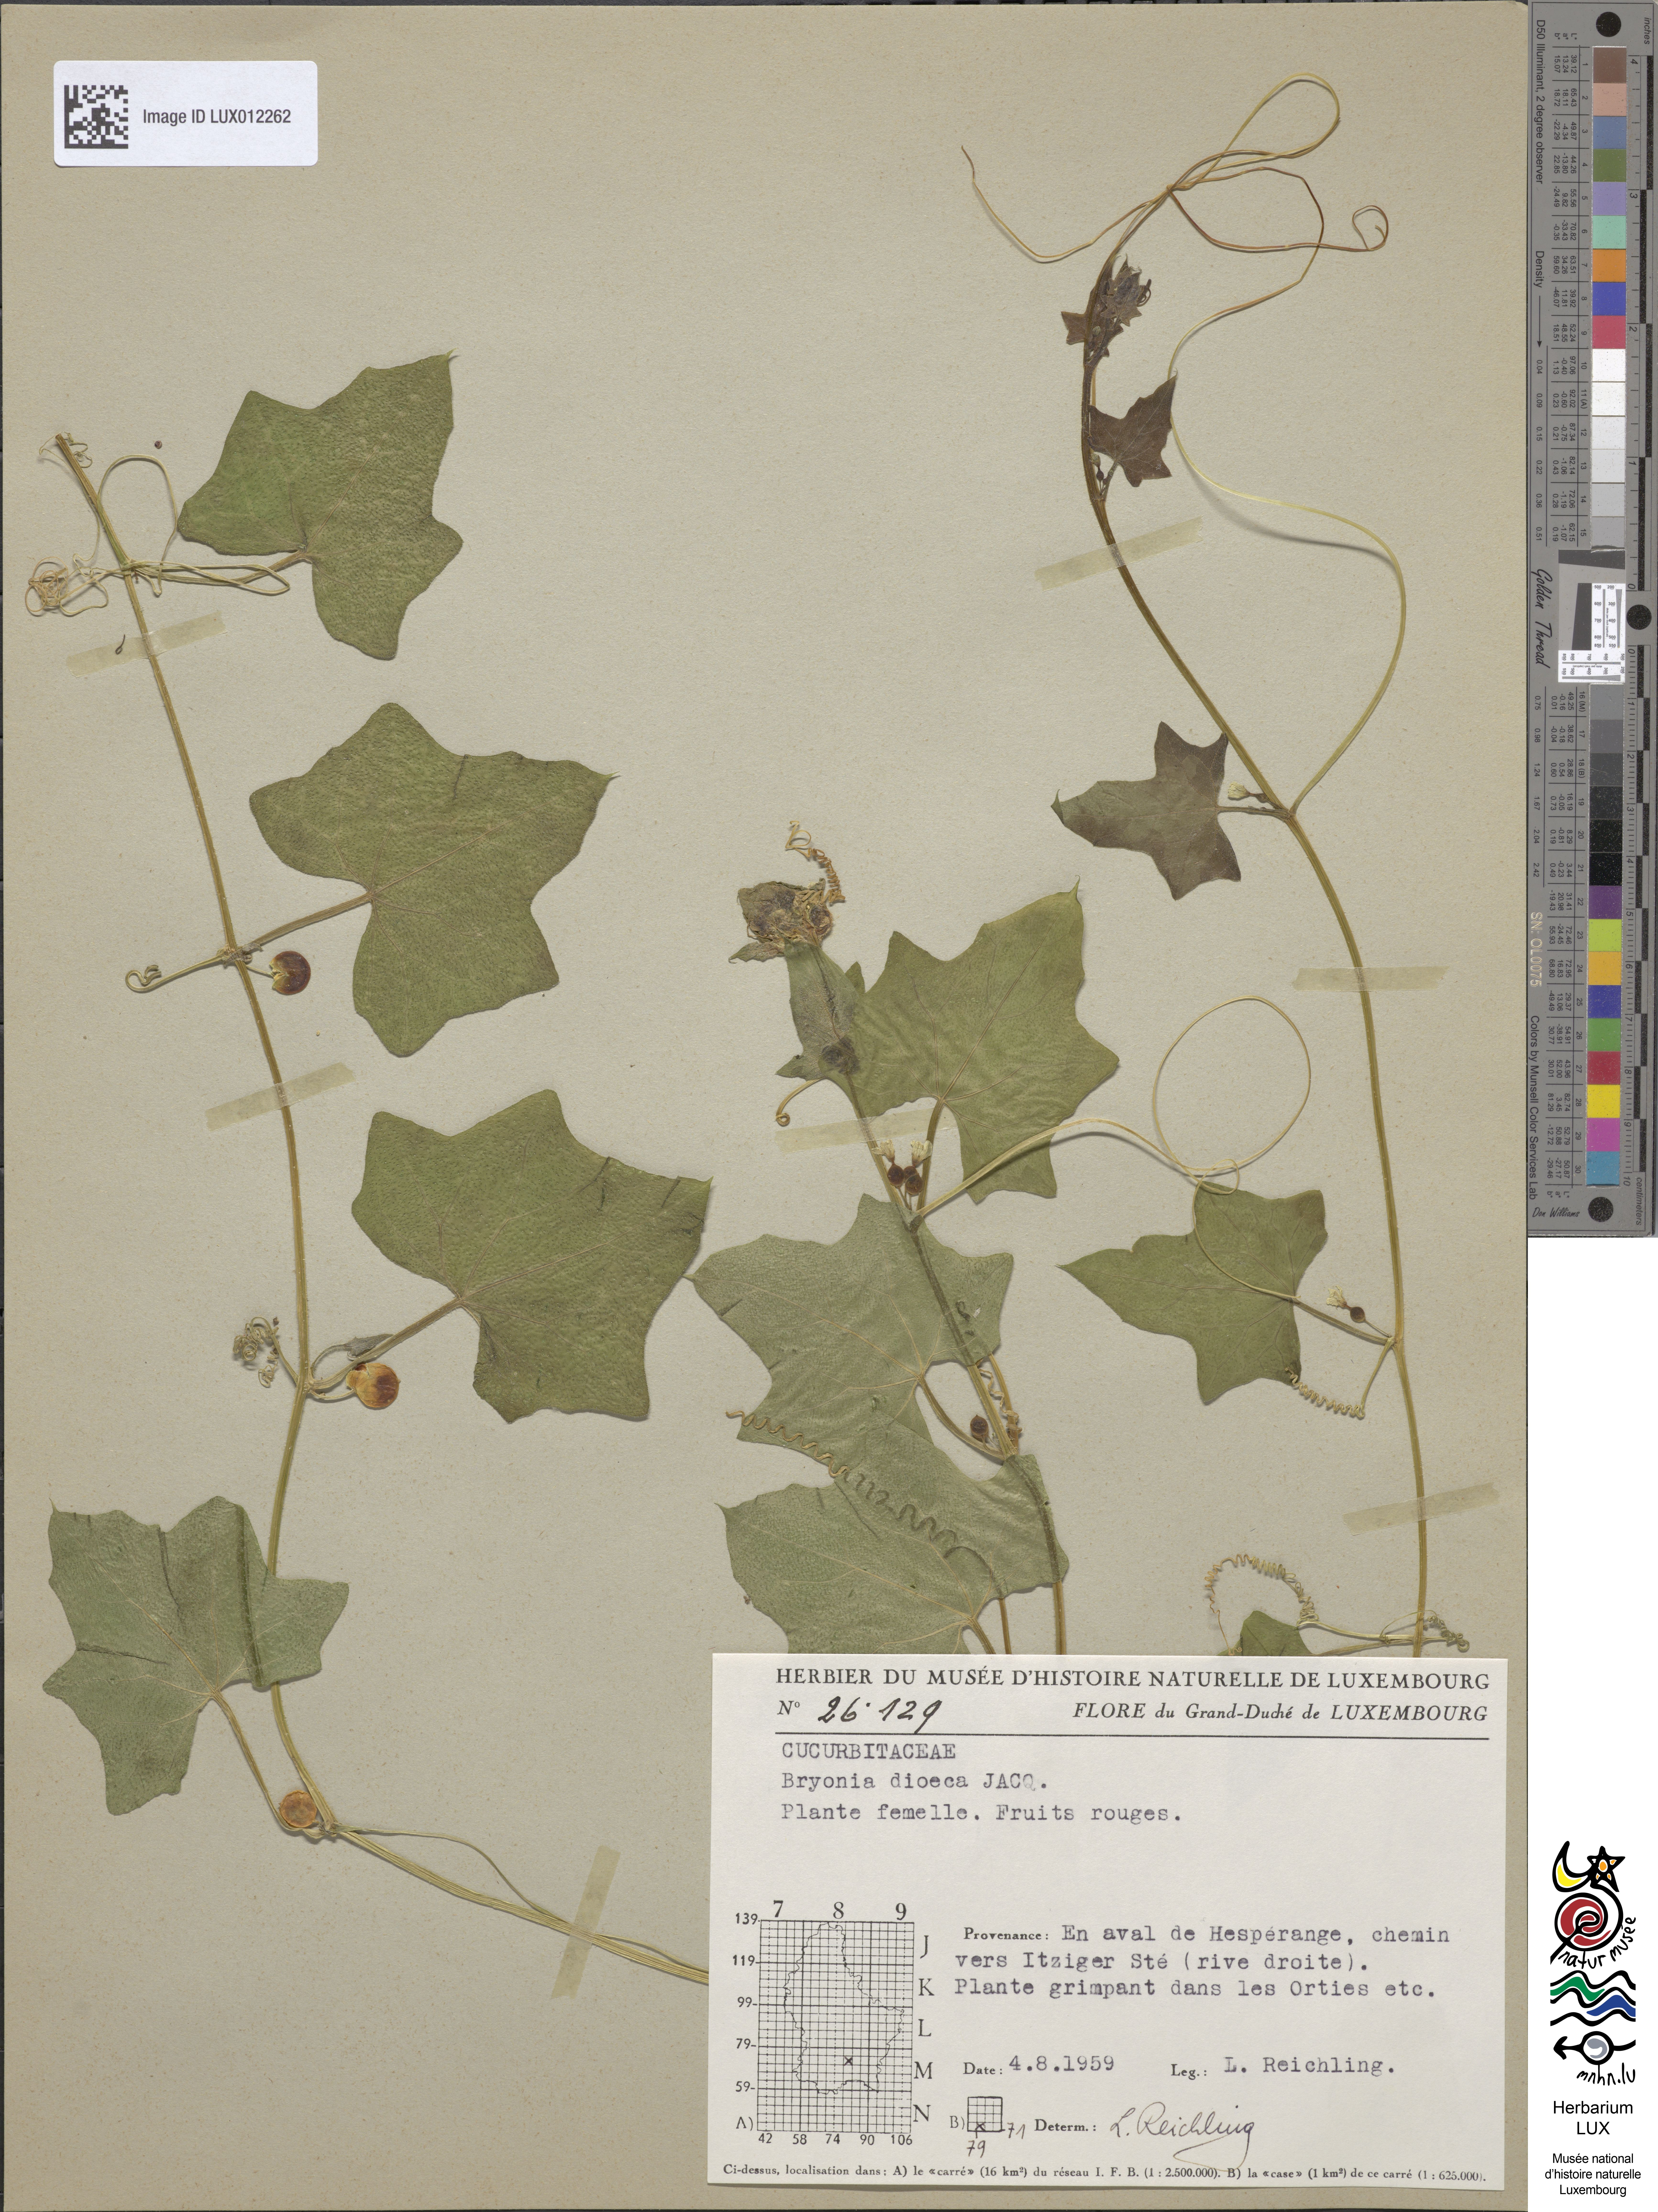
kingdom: Plantae
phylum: Tracheophyta
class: Magnoliopsida
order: Cucurbitales
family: Cucurbitaceae
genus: Bryonia
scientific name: Bryonia dioica
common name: White bryony
